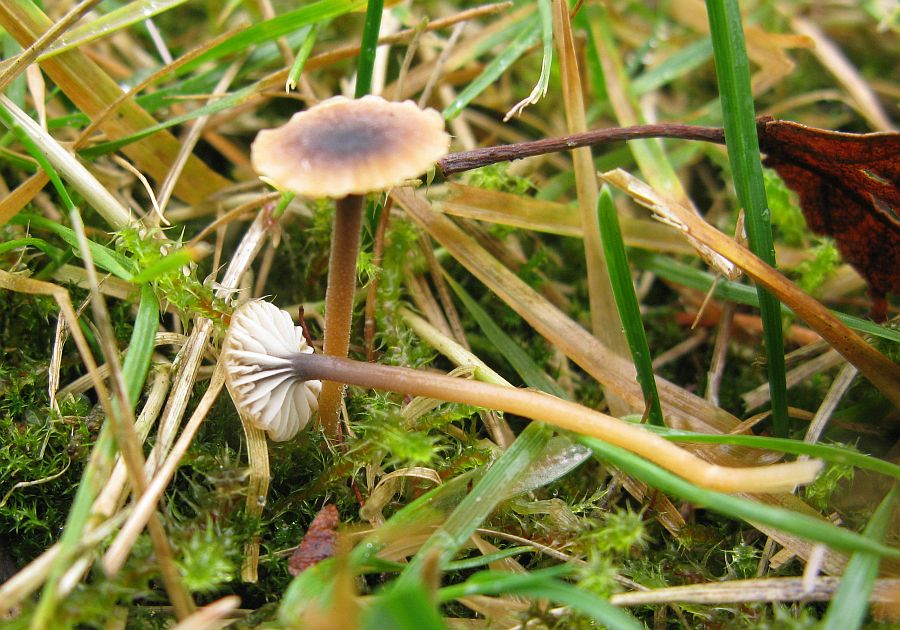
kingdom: Fungi
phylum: Basidiomycota
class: Agaricomycetes
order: Hymenochaetales
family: Rickenellaceae
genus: Rickenella
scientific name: Rickenella swartzii
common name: finstokket mosnavlehat
